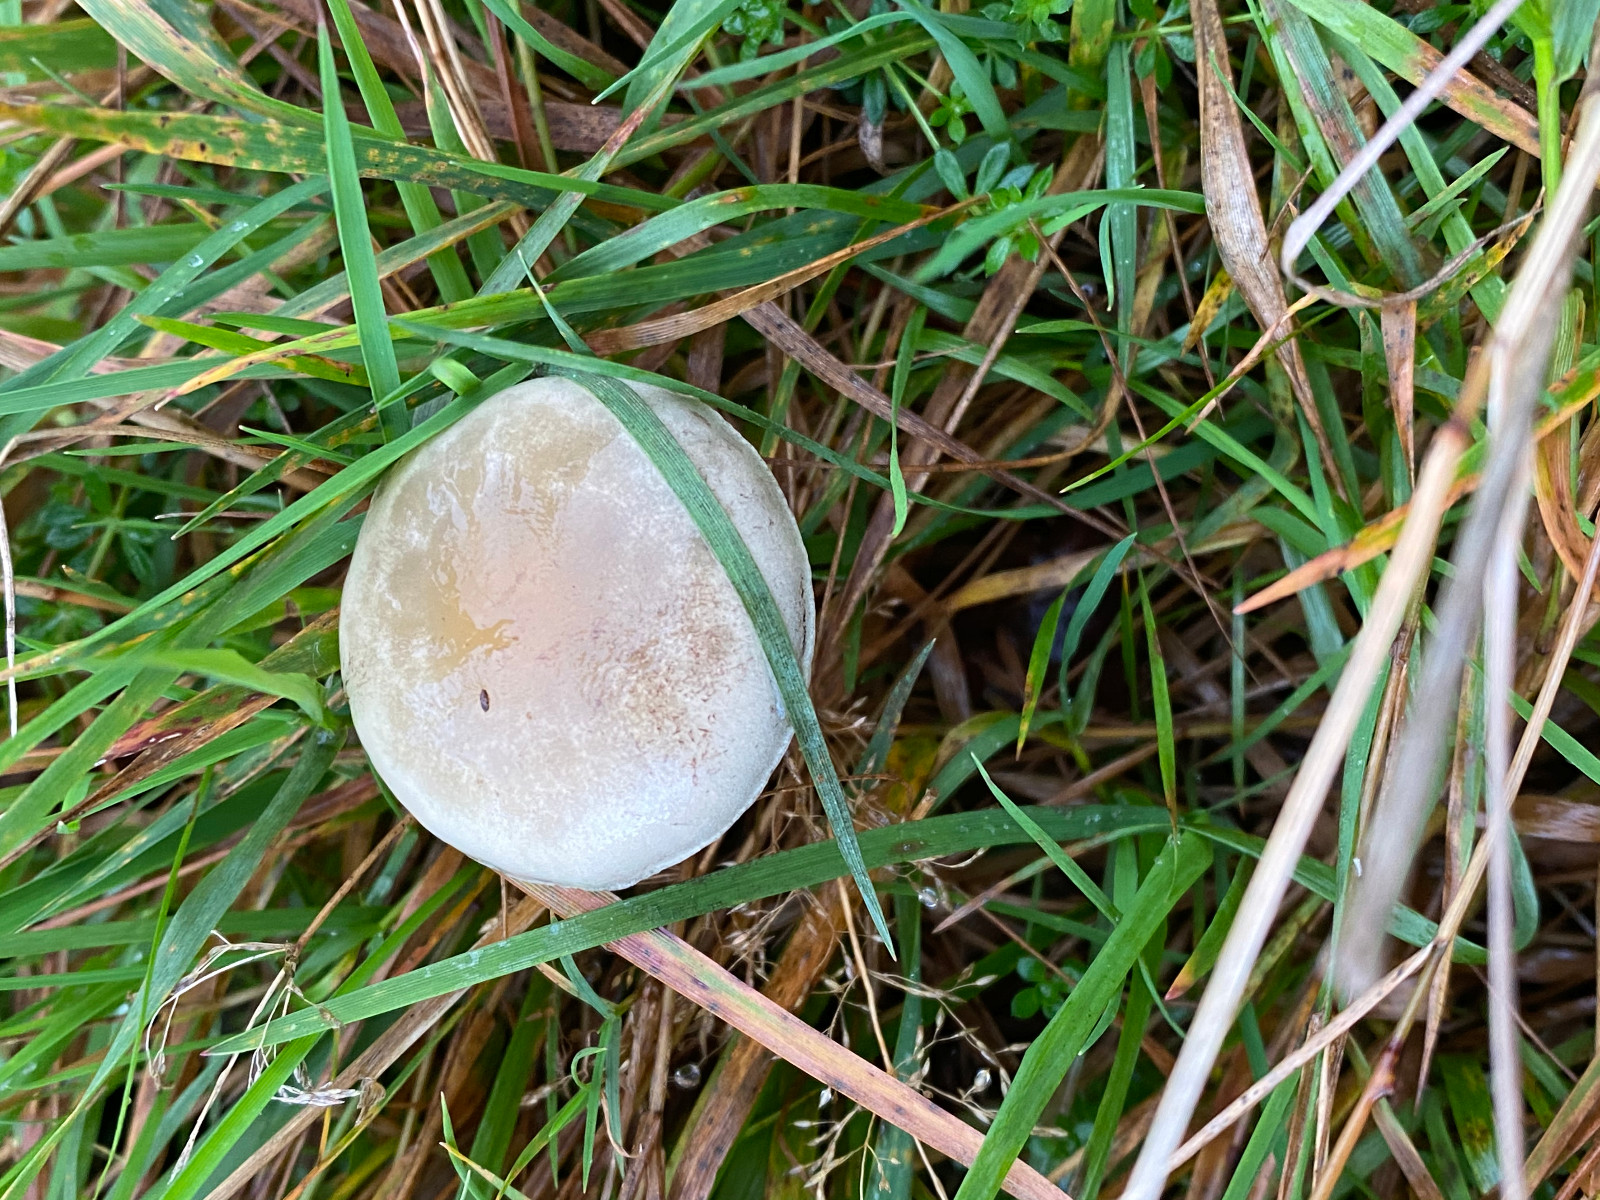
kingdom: Fungi
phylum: Basidiomycota
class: Agaricomycetes
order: Agaricales
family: Strophariaceae
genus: Protostropharia
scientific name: Protostropharia semiglobata
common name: halvkugleformet bredblad
